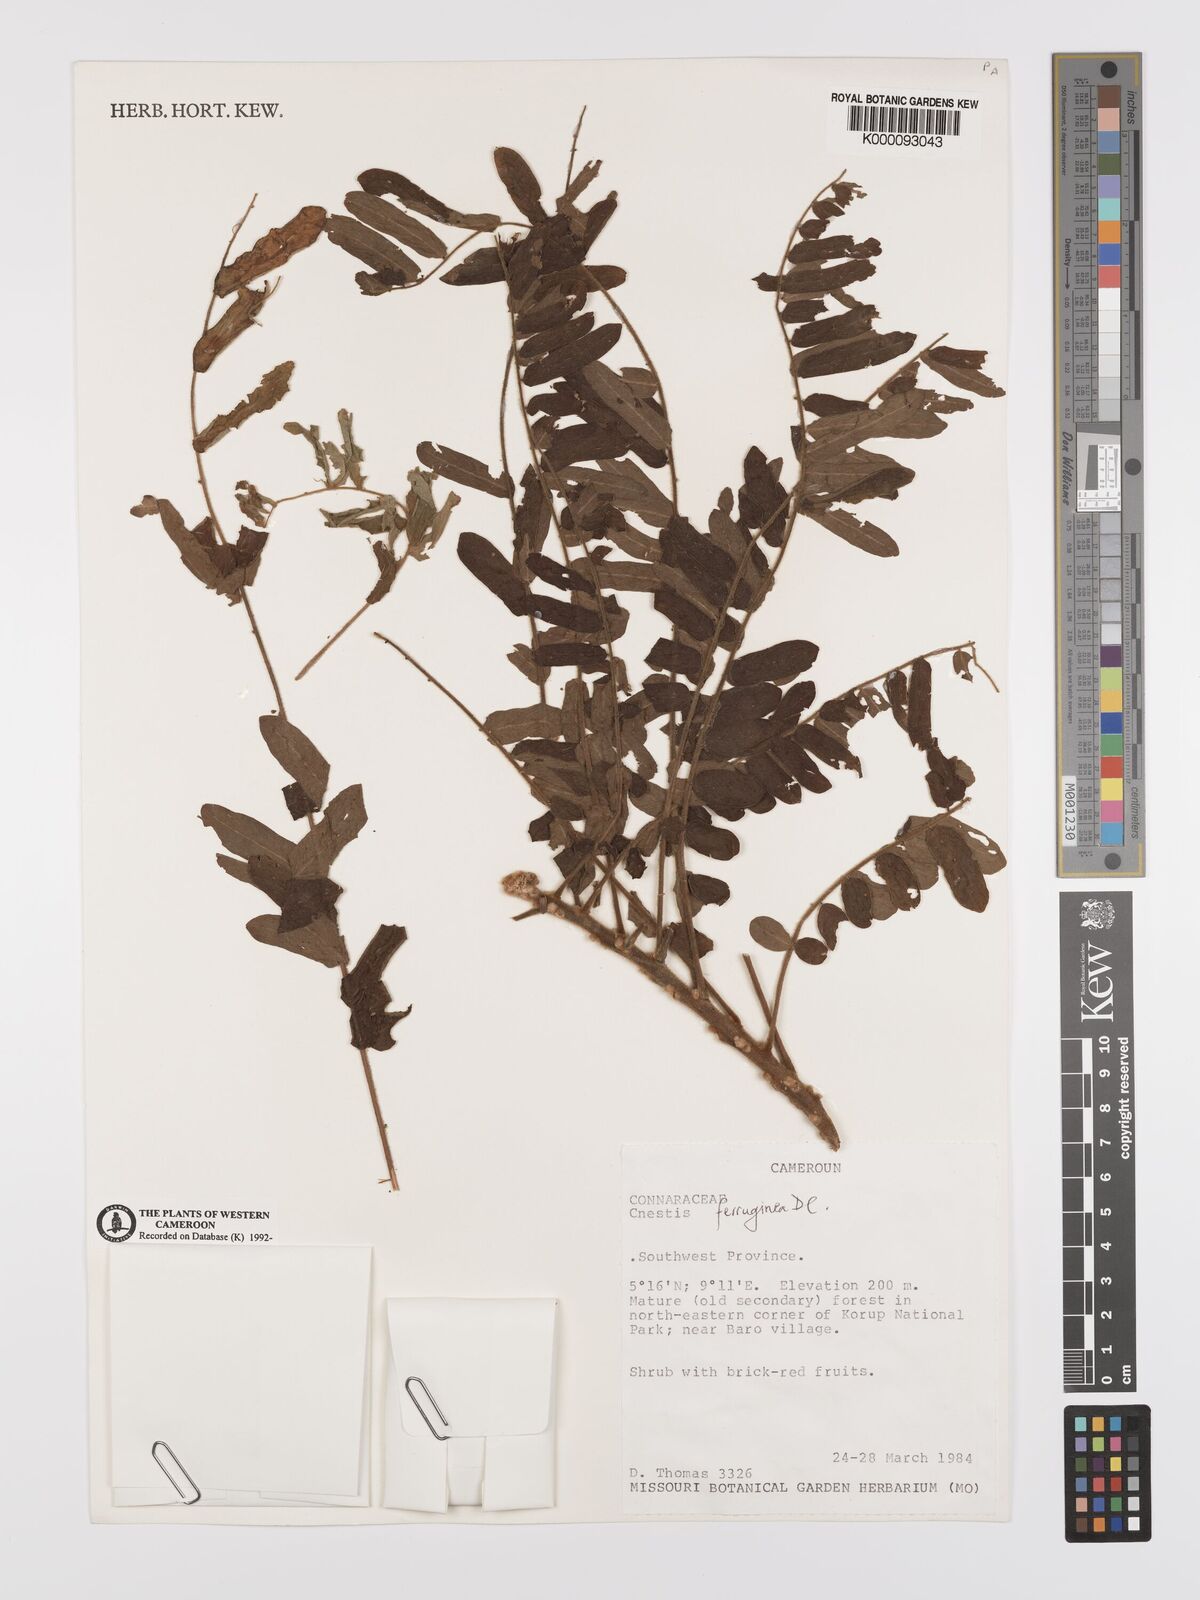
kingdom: Plantae
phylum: Tracheophyta
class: Magnoliopsida
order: Oxalidales
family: Connaraceae
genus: Cnestis
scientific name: Cnestis ferruginea
